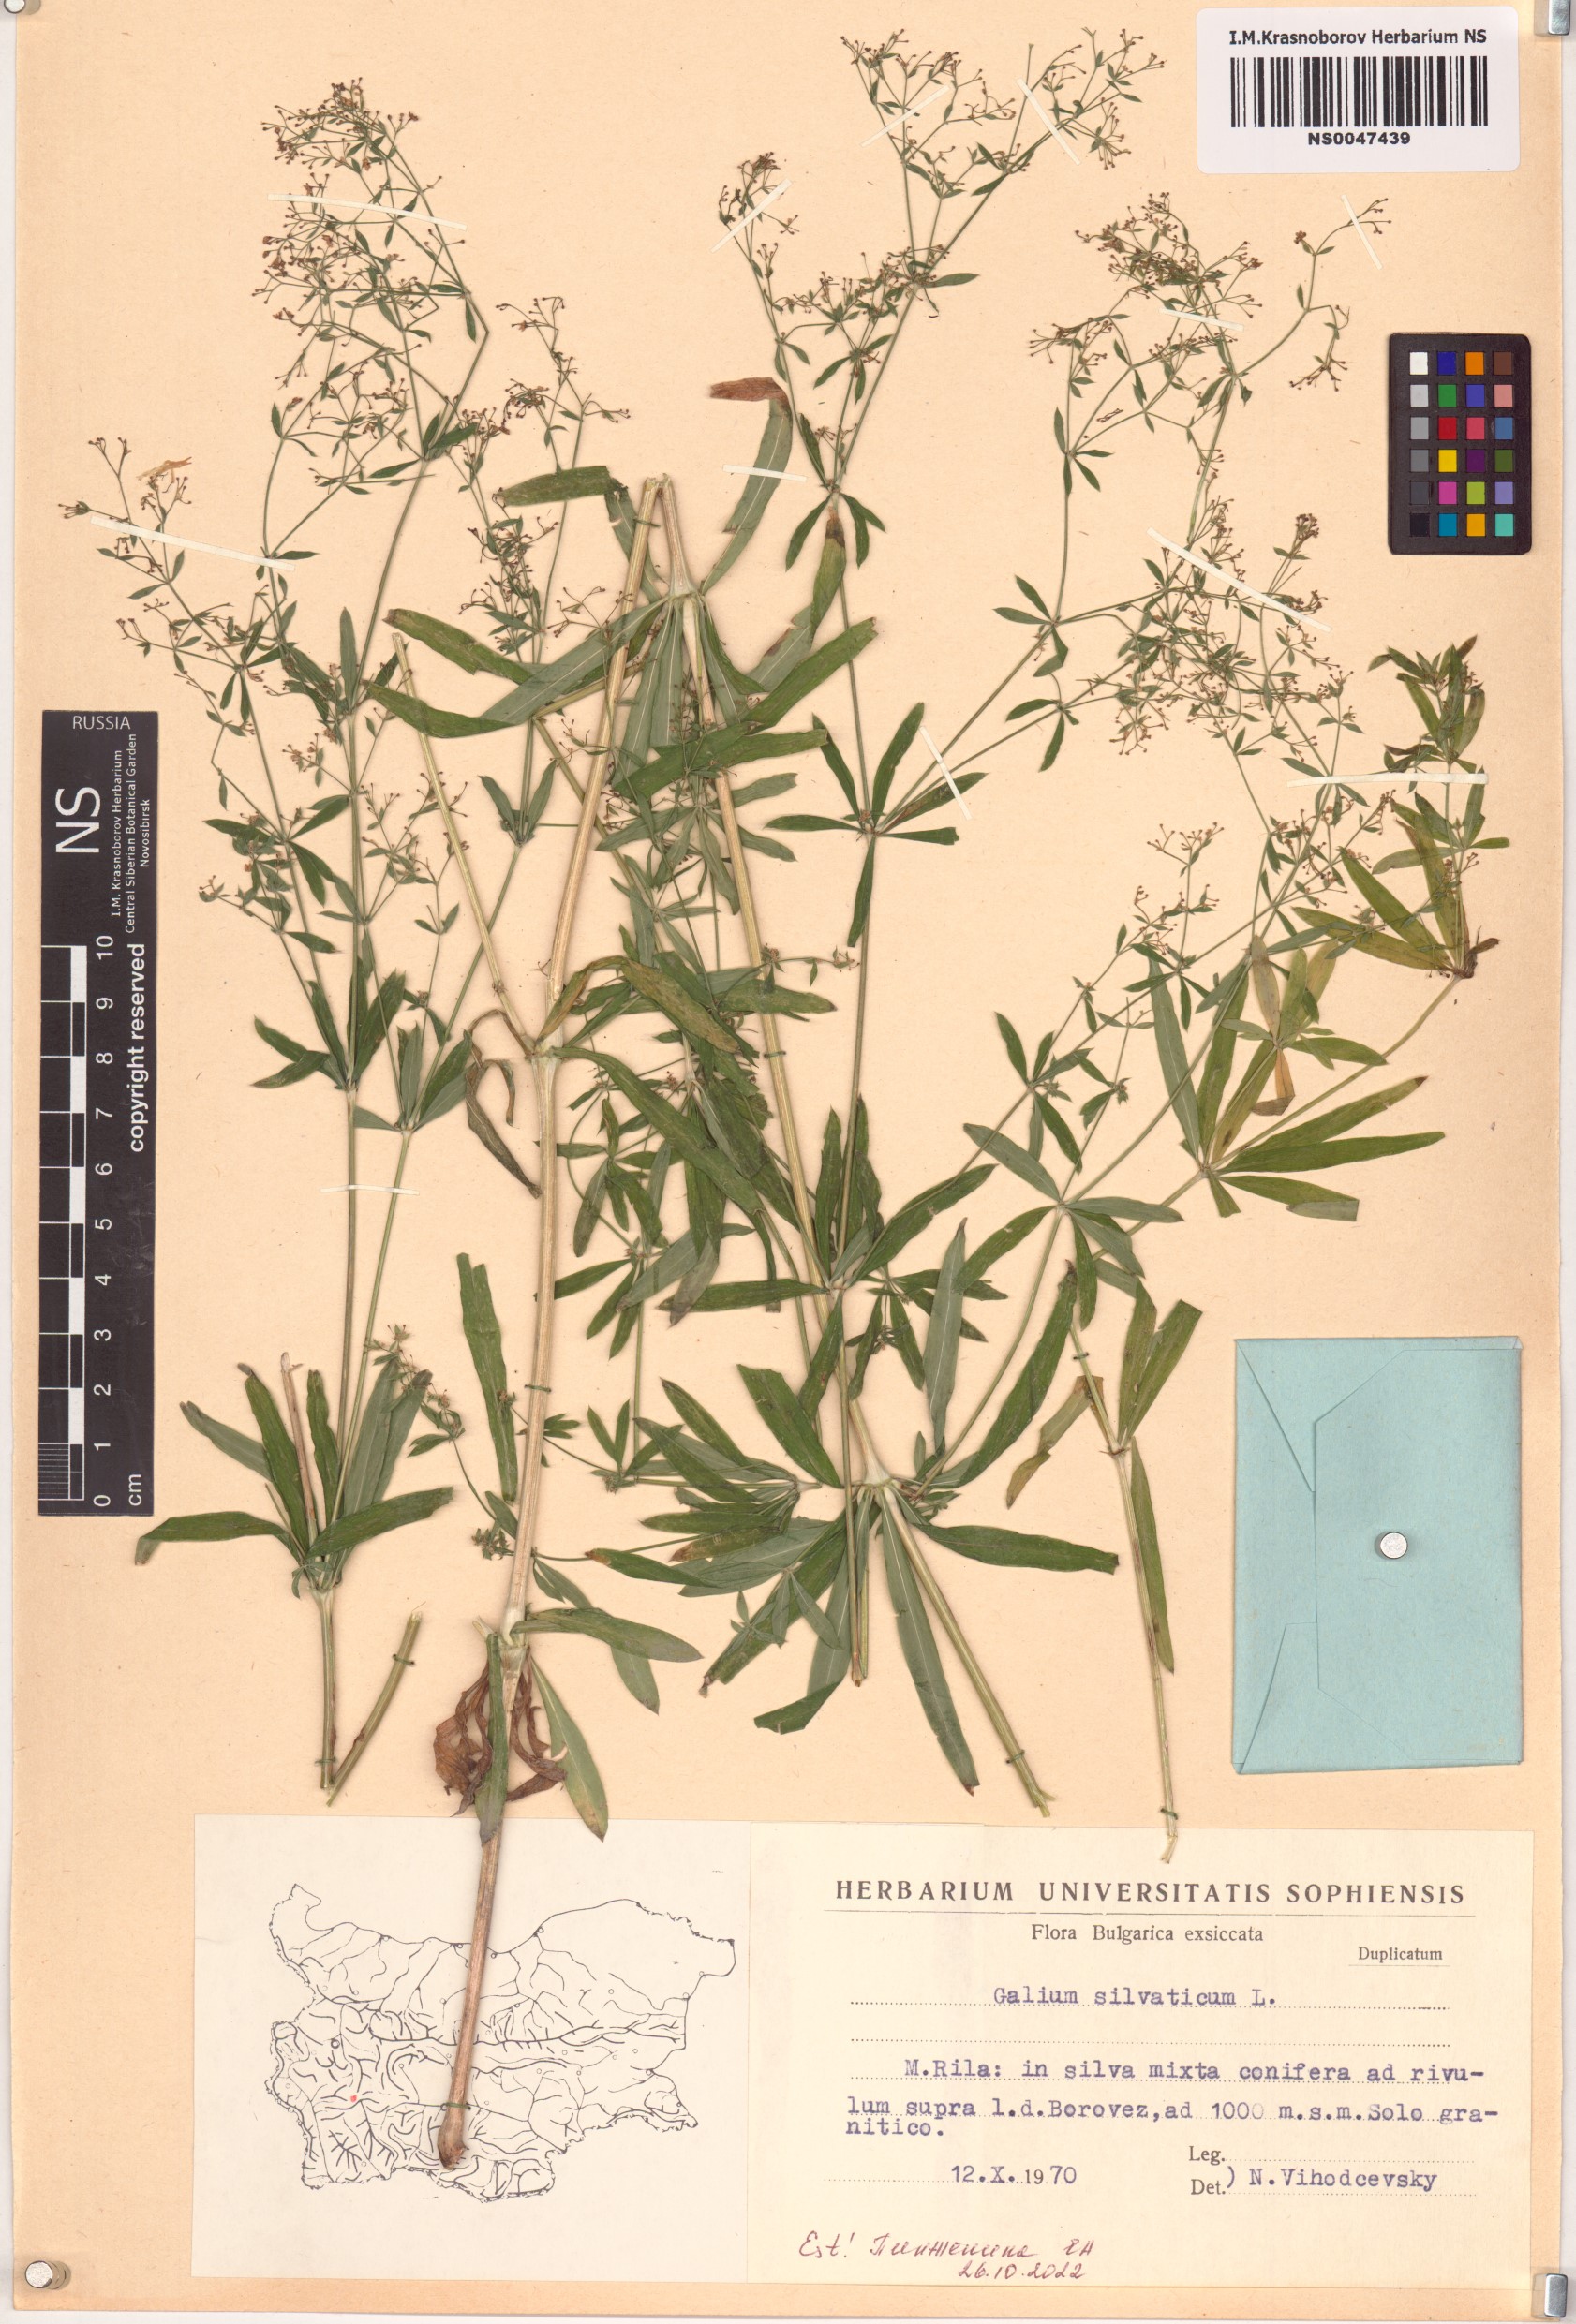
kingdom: Plantae
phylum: Tracheophyta
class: Magnoliopsida
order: Gentianales
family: Rubiaceae
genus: Galium
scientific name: Galium sylvaticum
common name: Wood bedstraw
